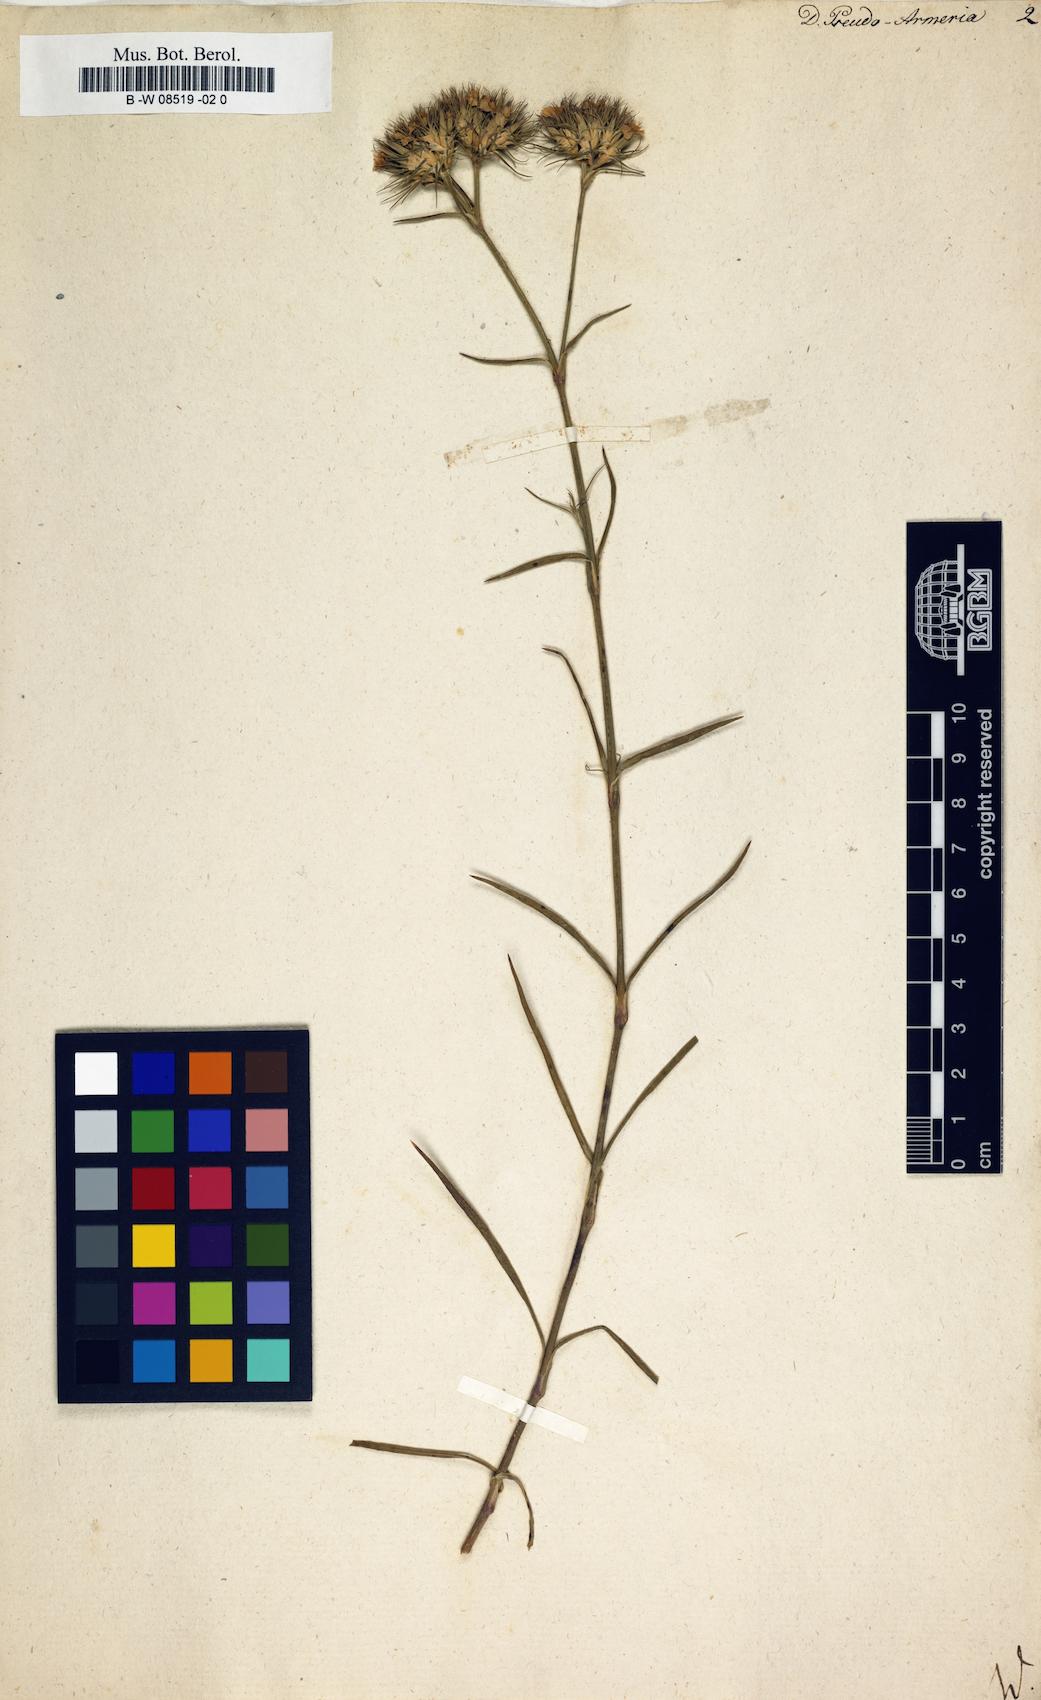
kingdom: Plantae
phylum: Tracheophyta
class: Magnoliopsida
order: Caryophyllales
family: Caryophyllaceae
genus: Dianthus
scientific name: Dianthus pseudoarmeria
